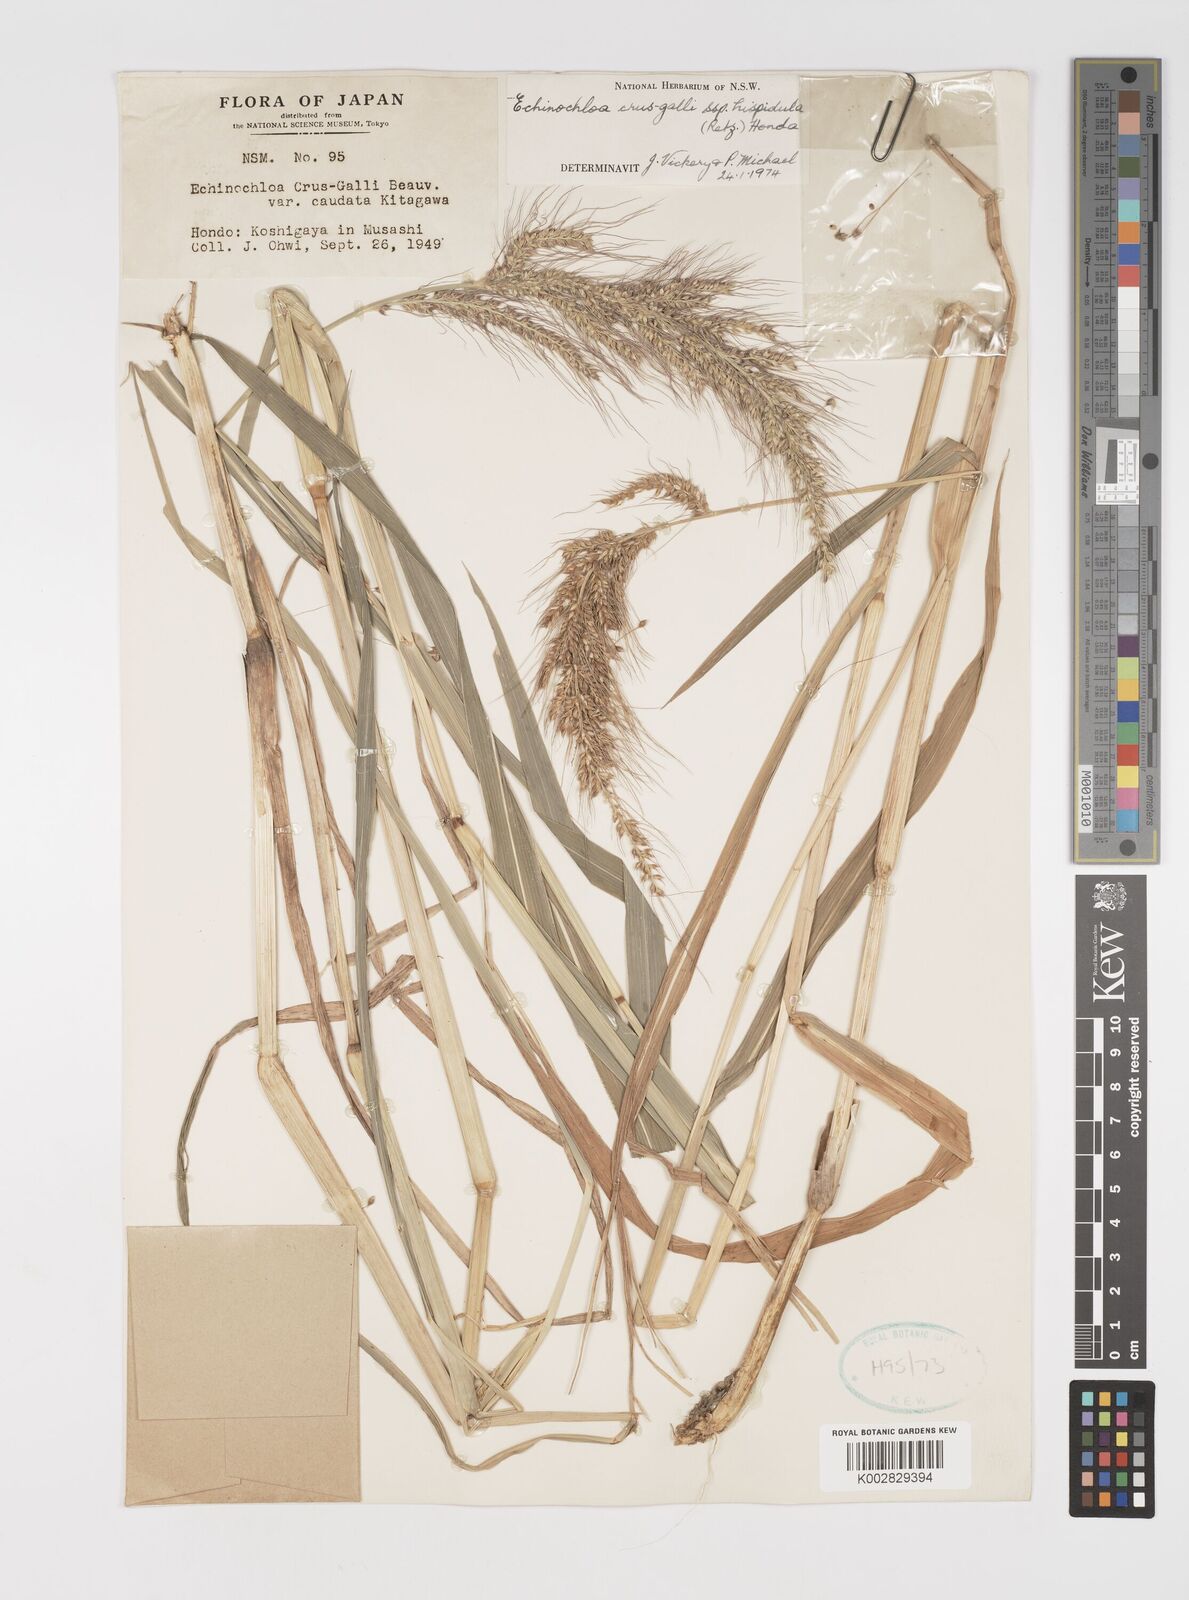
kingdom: Plantae
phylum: Tracheophyta
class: Liliopsida
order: Poales
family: Poaceae
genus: Echinochloa
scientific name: Echinochloa crus-galli
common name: Cockspur
